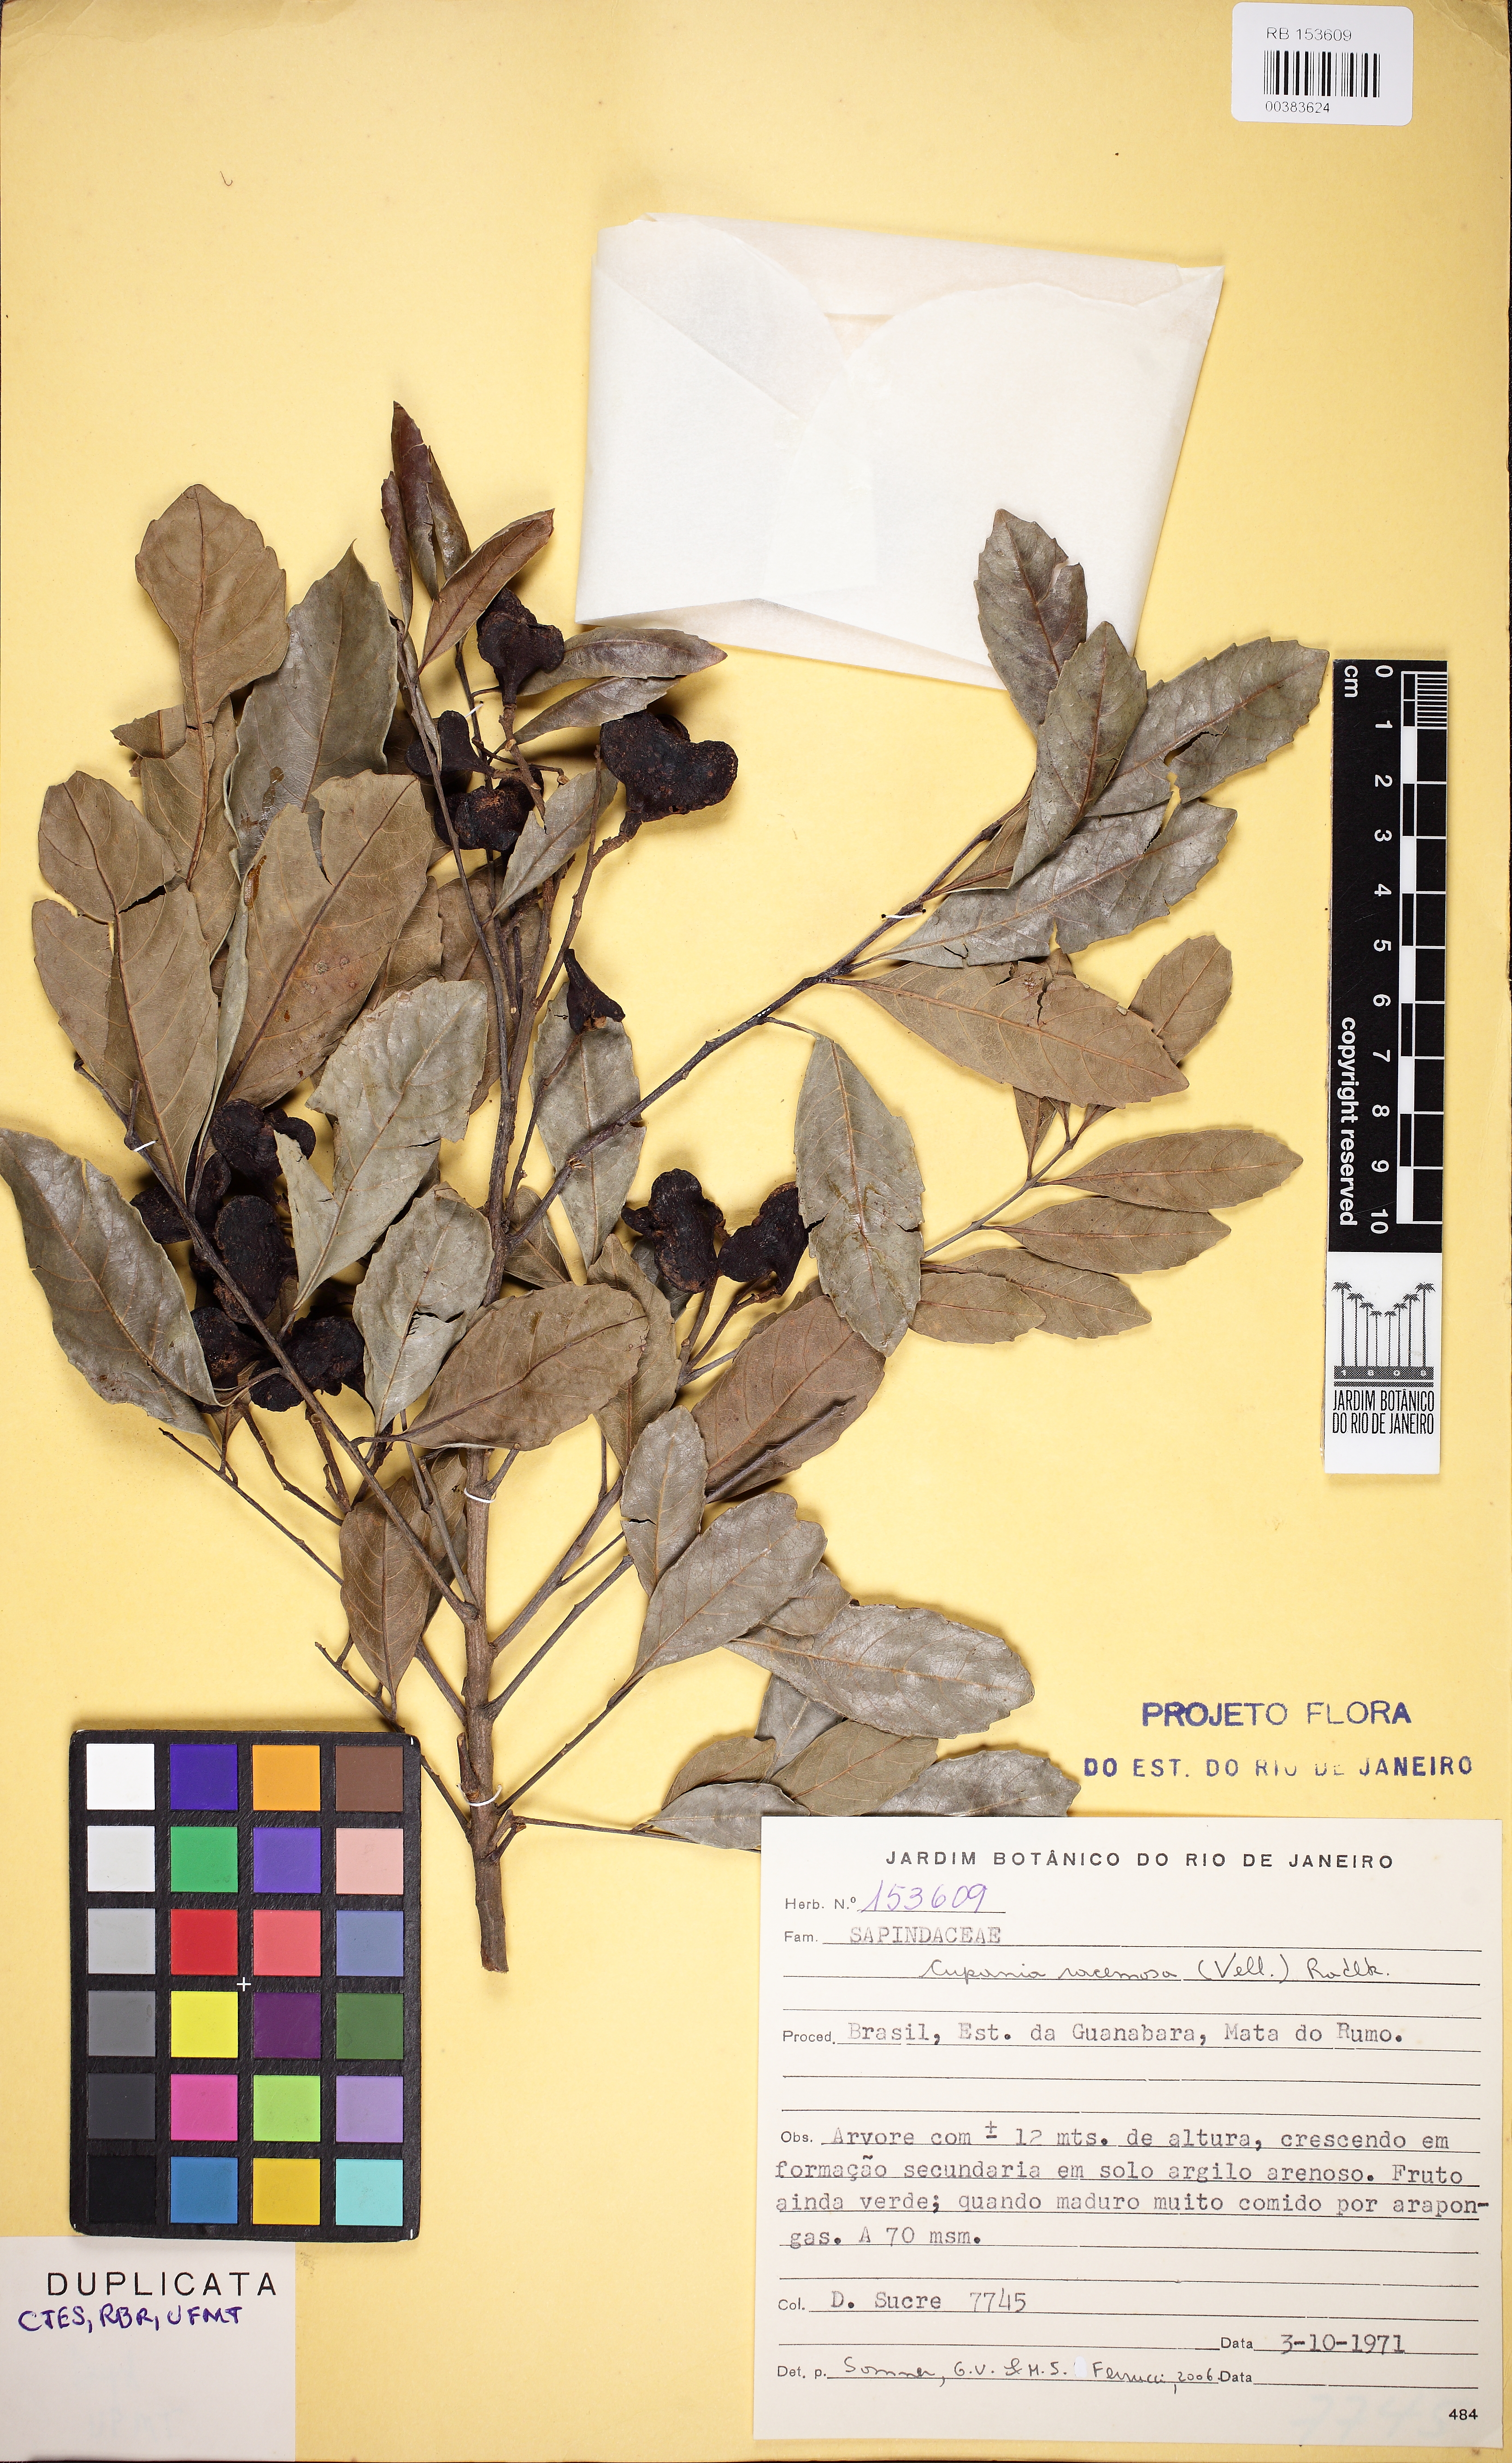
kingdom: Plantae
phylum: Tracheophyta
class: Magnoliopsida
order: Sapindales
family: Sapindaceae
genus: Cupania
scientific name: Cupania racemosa
